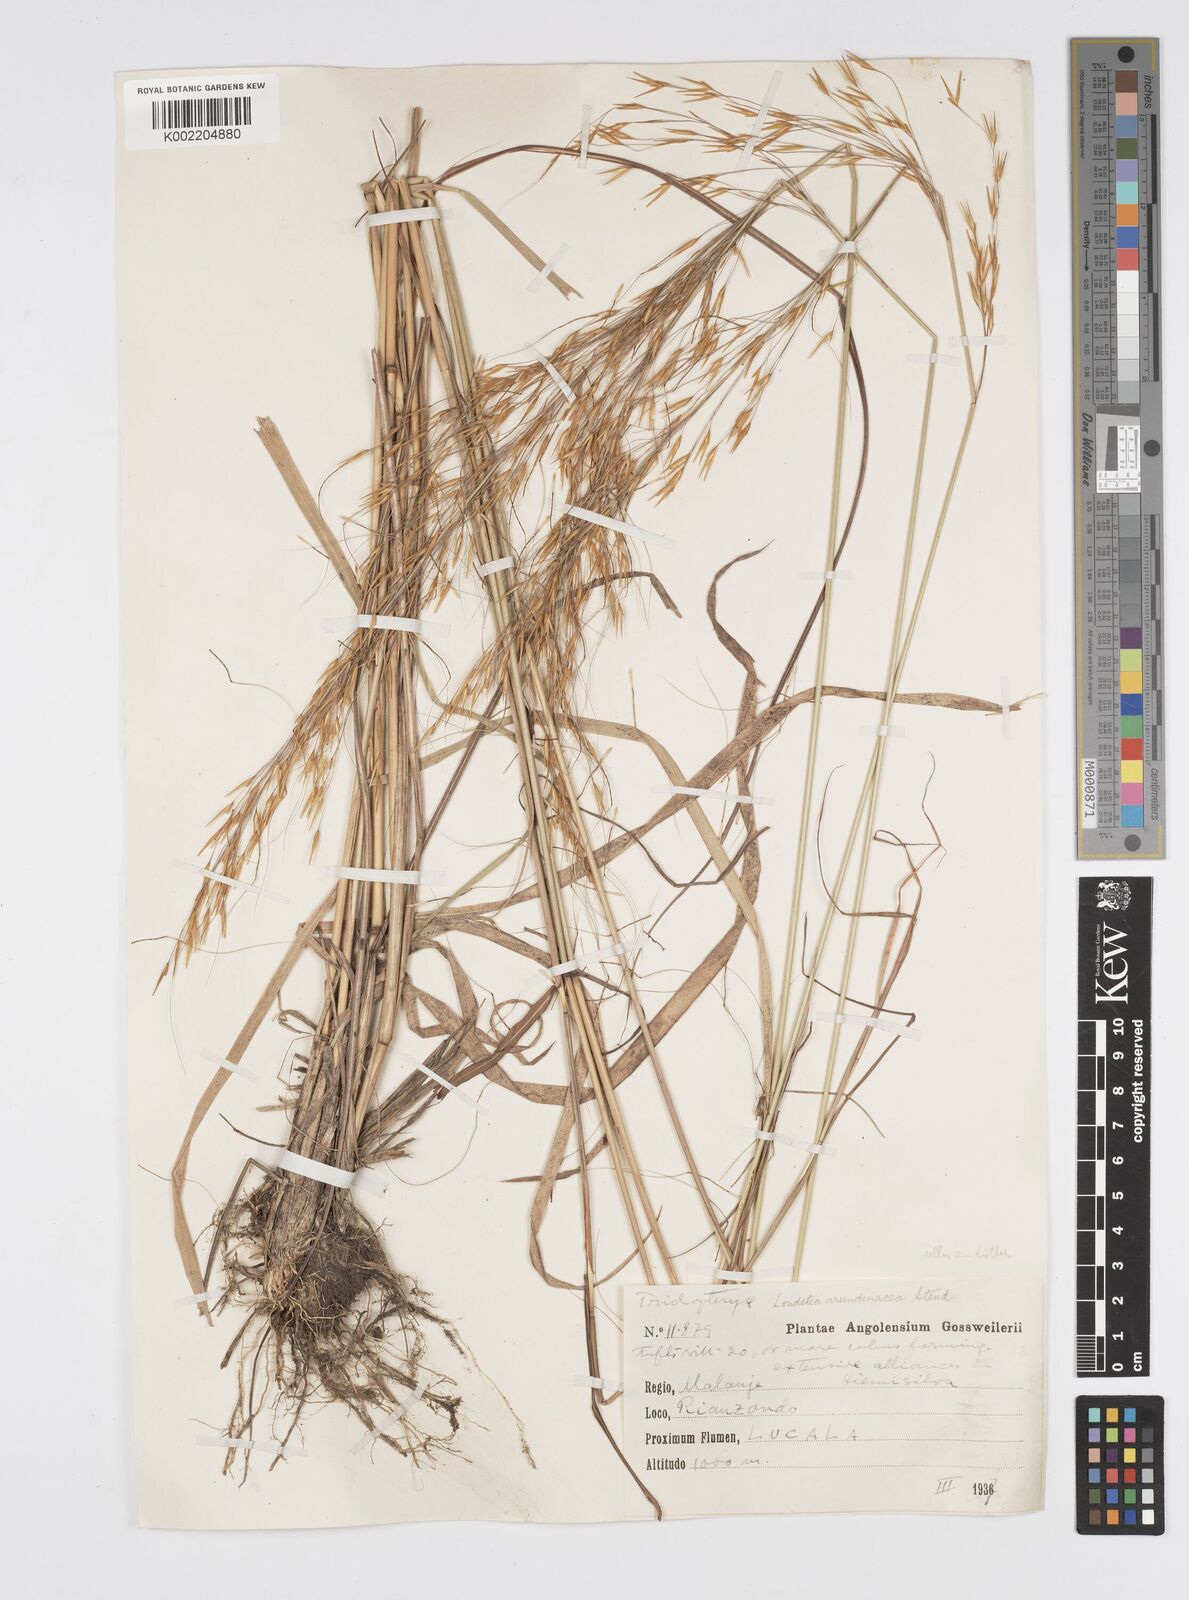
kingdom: Plantae
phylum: Tracheophyta
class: Liliopsida
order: Poales
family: Poaceae
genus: Loudetia
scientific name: Loudetia simplex
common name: Common russet grass
